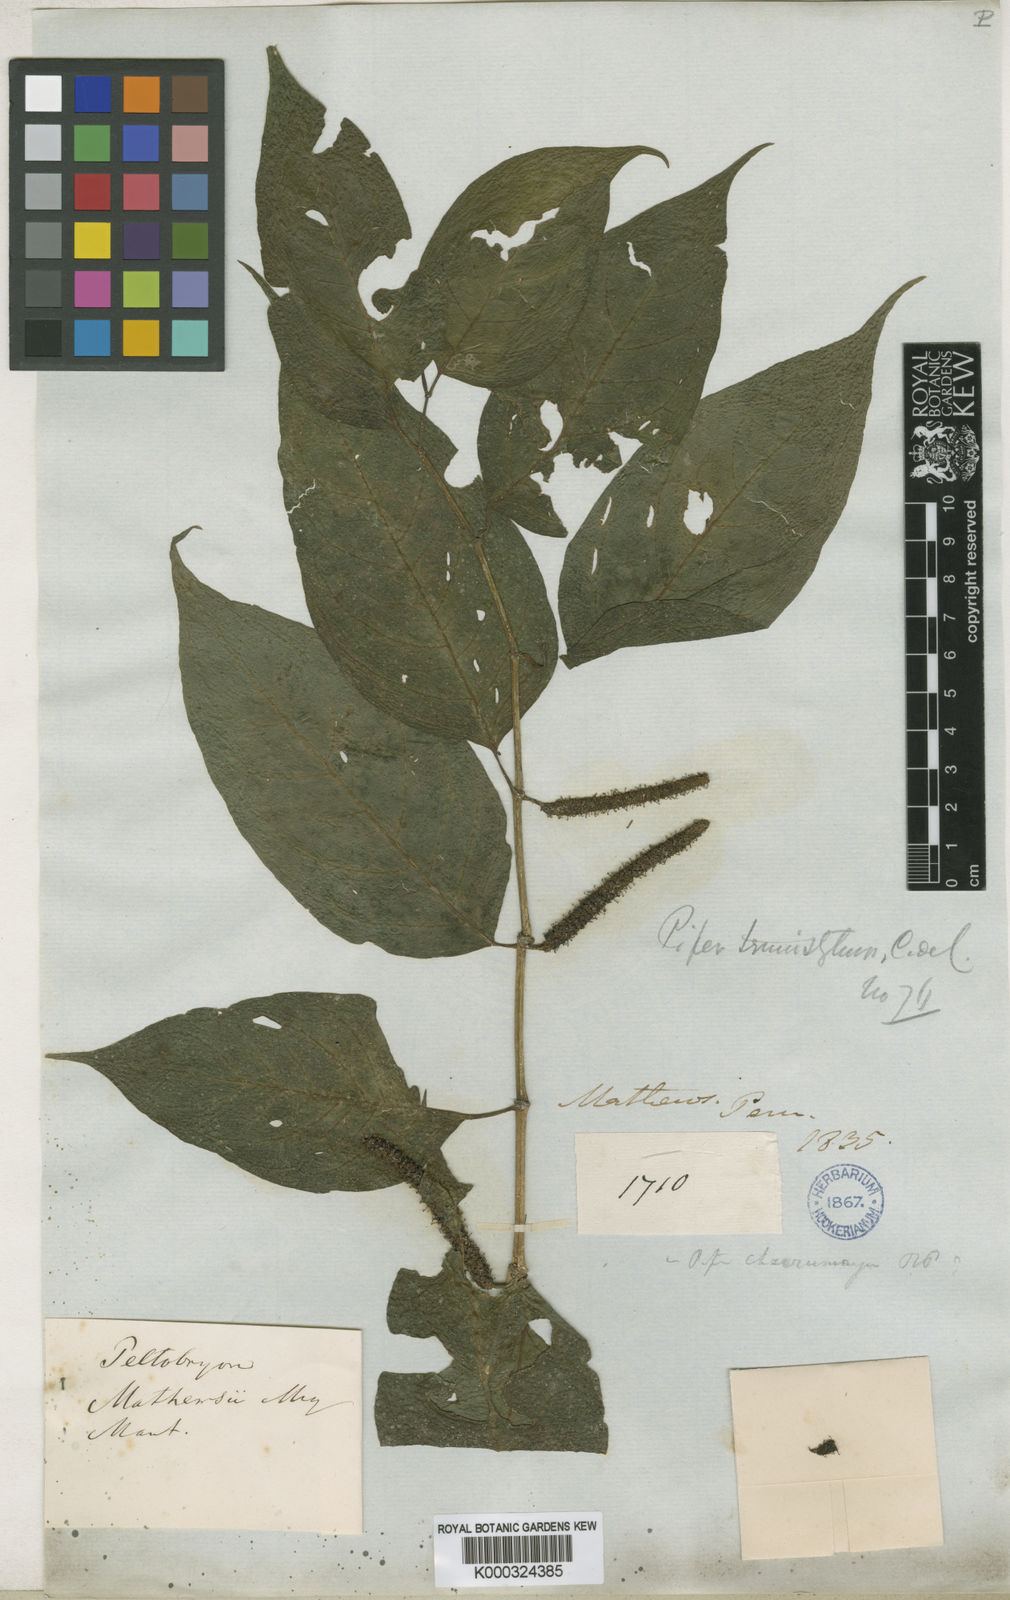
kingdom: Plantae
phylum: Tracheophyta
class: Magnoliopsida
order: Piperales
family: Piperaceae
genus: Piper
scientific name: Piper dichotomum
